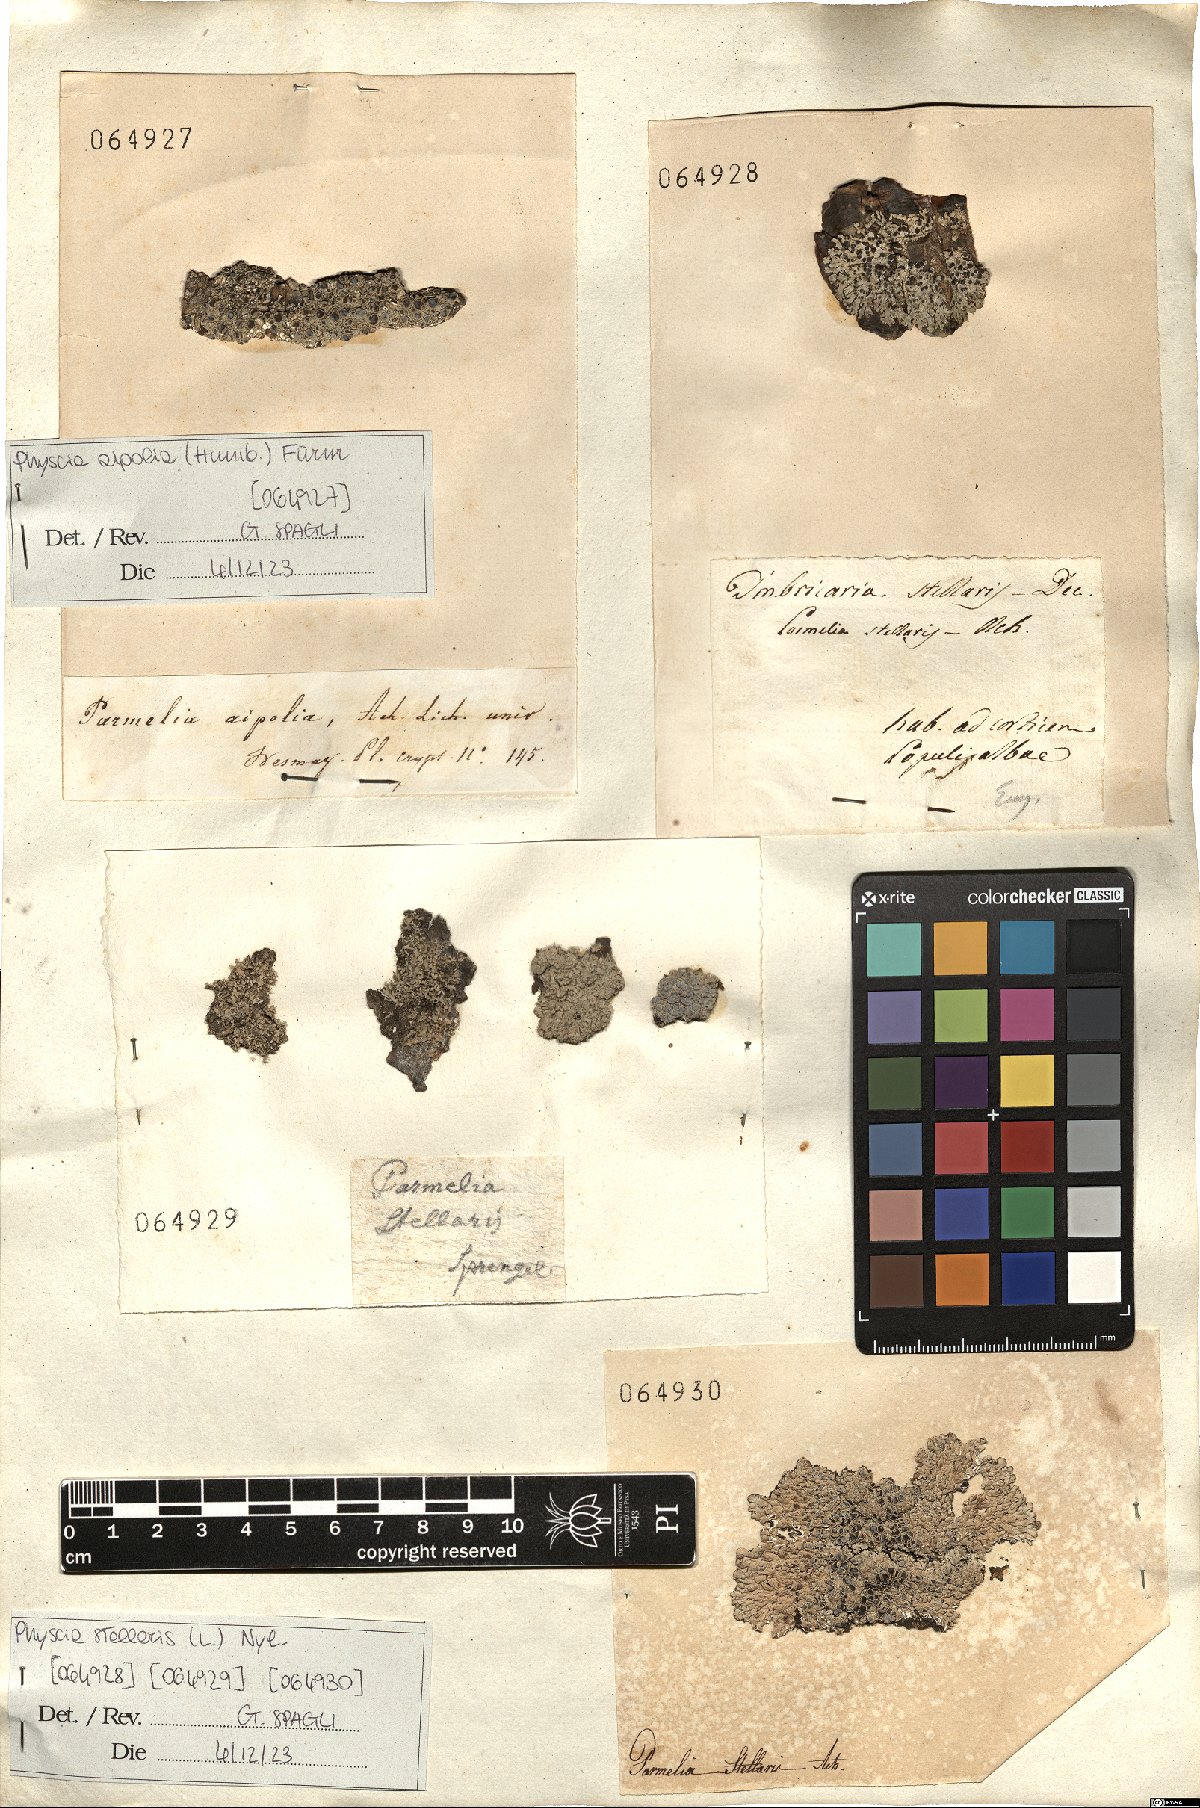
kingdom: Fungi
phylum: Ascomycota
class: Lecanoromycetes
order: Caliciales
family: Physciaceae
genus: Physcia
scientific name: Physcia aipolia
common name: Hoary rosette lichen
